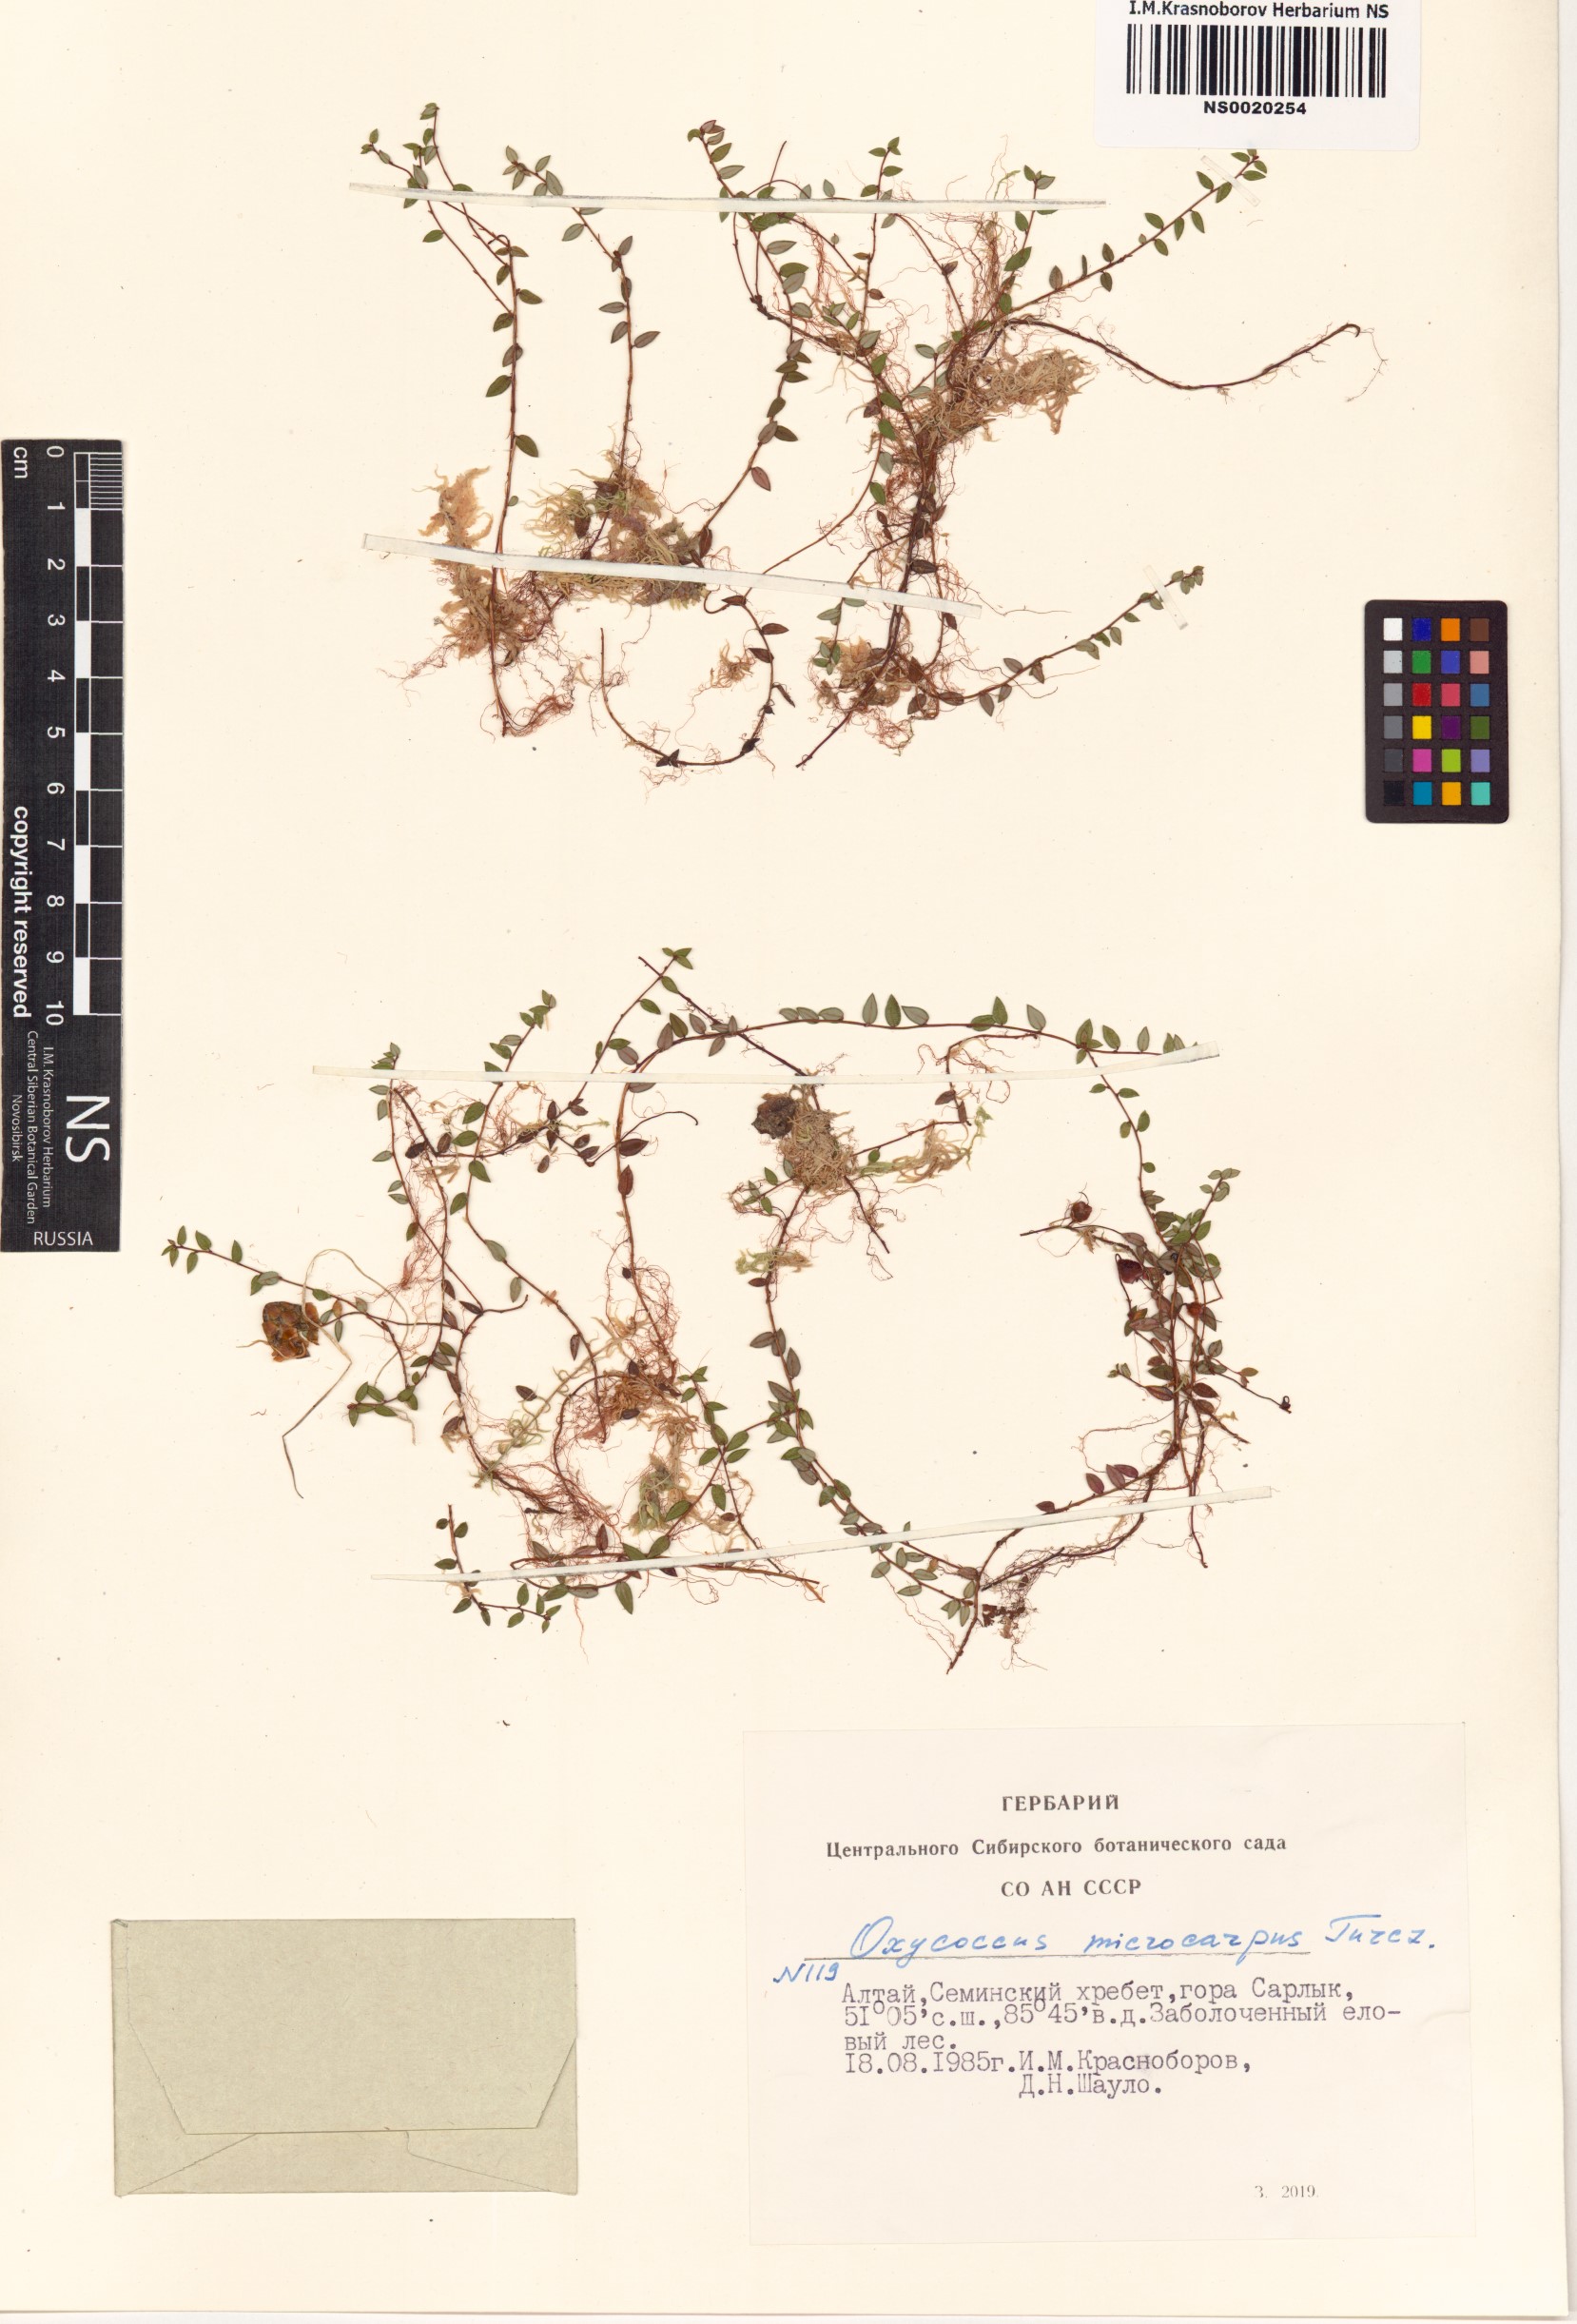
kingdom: Plantae
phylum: Tracheophyta
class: Magnoliopsida
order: Ericales
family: Ericaceae
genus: Vaccinium
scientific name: Vaccinium microcarpum
